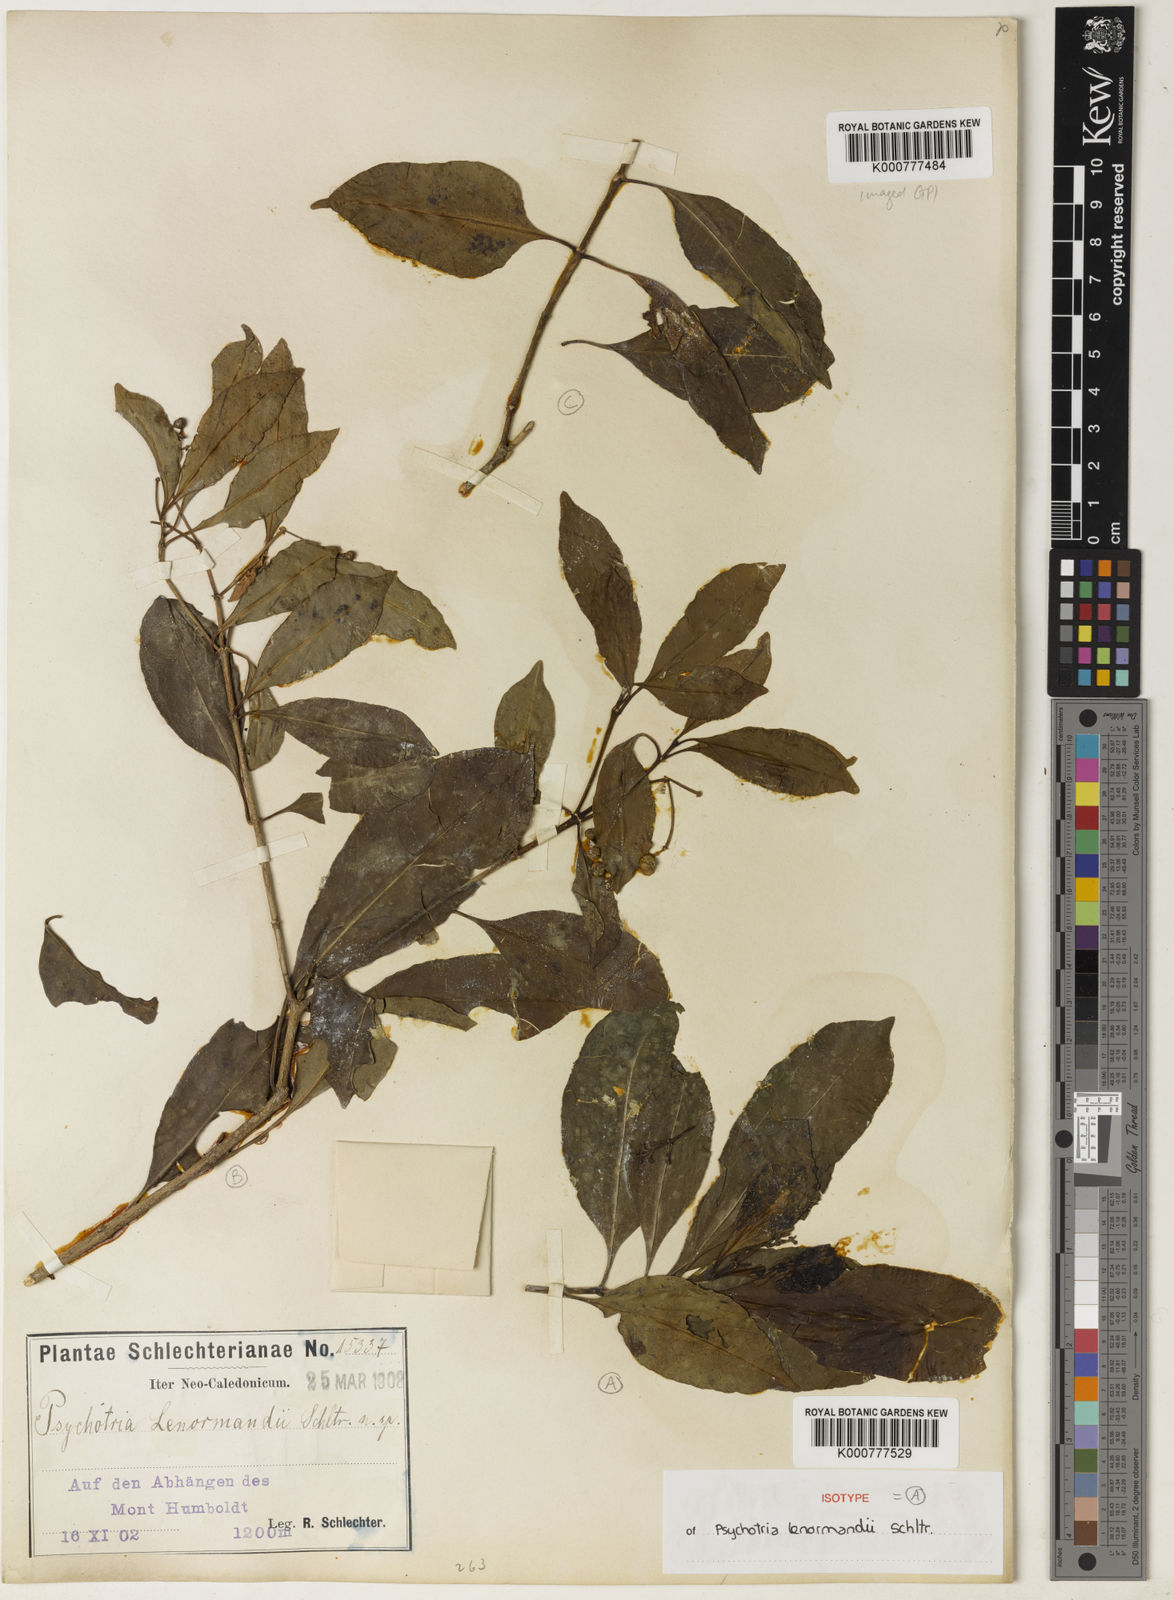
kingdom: Plantae
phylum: Tracheophyta
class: Magnoliopsida
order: Gentianales
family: Rubiaceae
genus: Eumachia
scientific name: Eumachia collina
